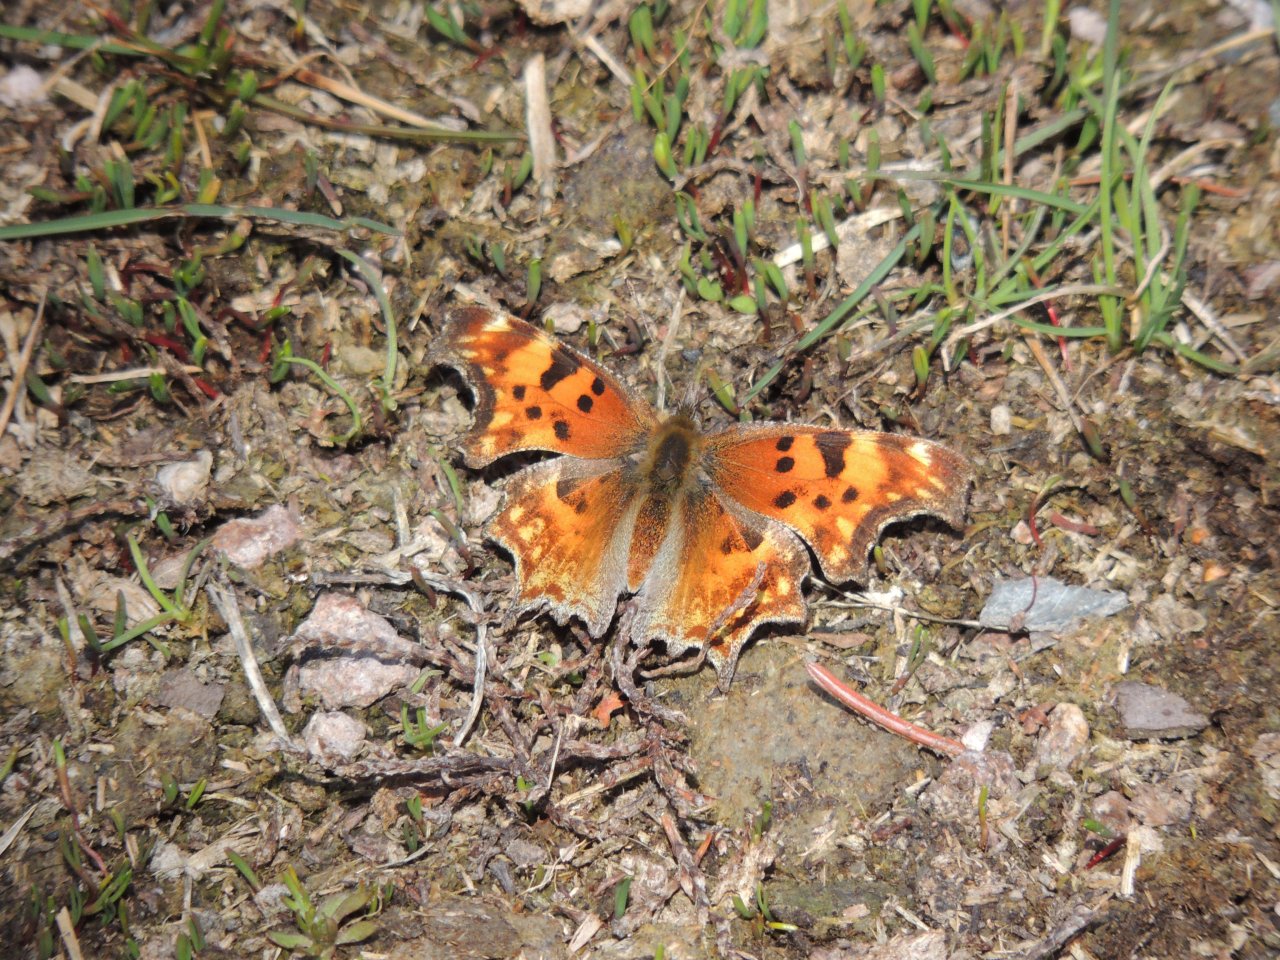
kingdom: Animalia
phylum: Arthropoda
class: Insecta
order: Lepidoptera
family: Nymphalidae
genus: Polygonia
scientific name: Polygonia gracilis
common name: Hoary Comma
